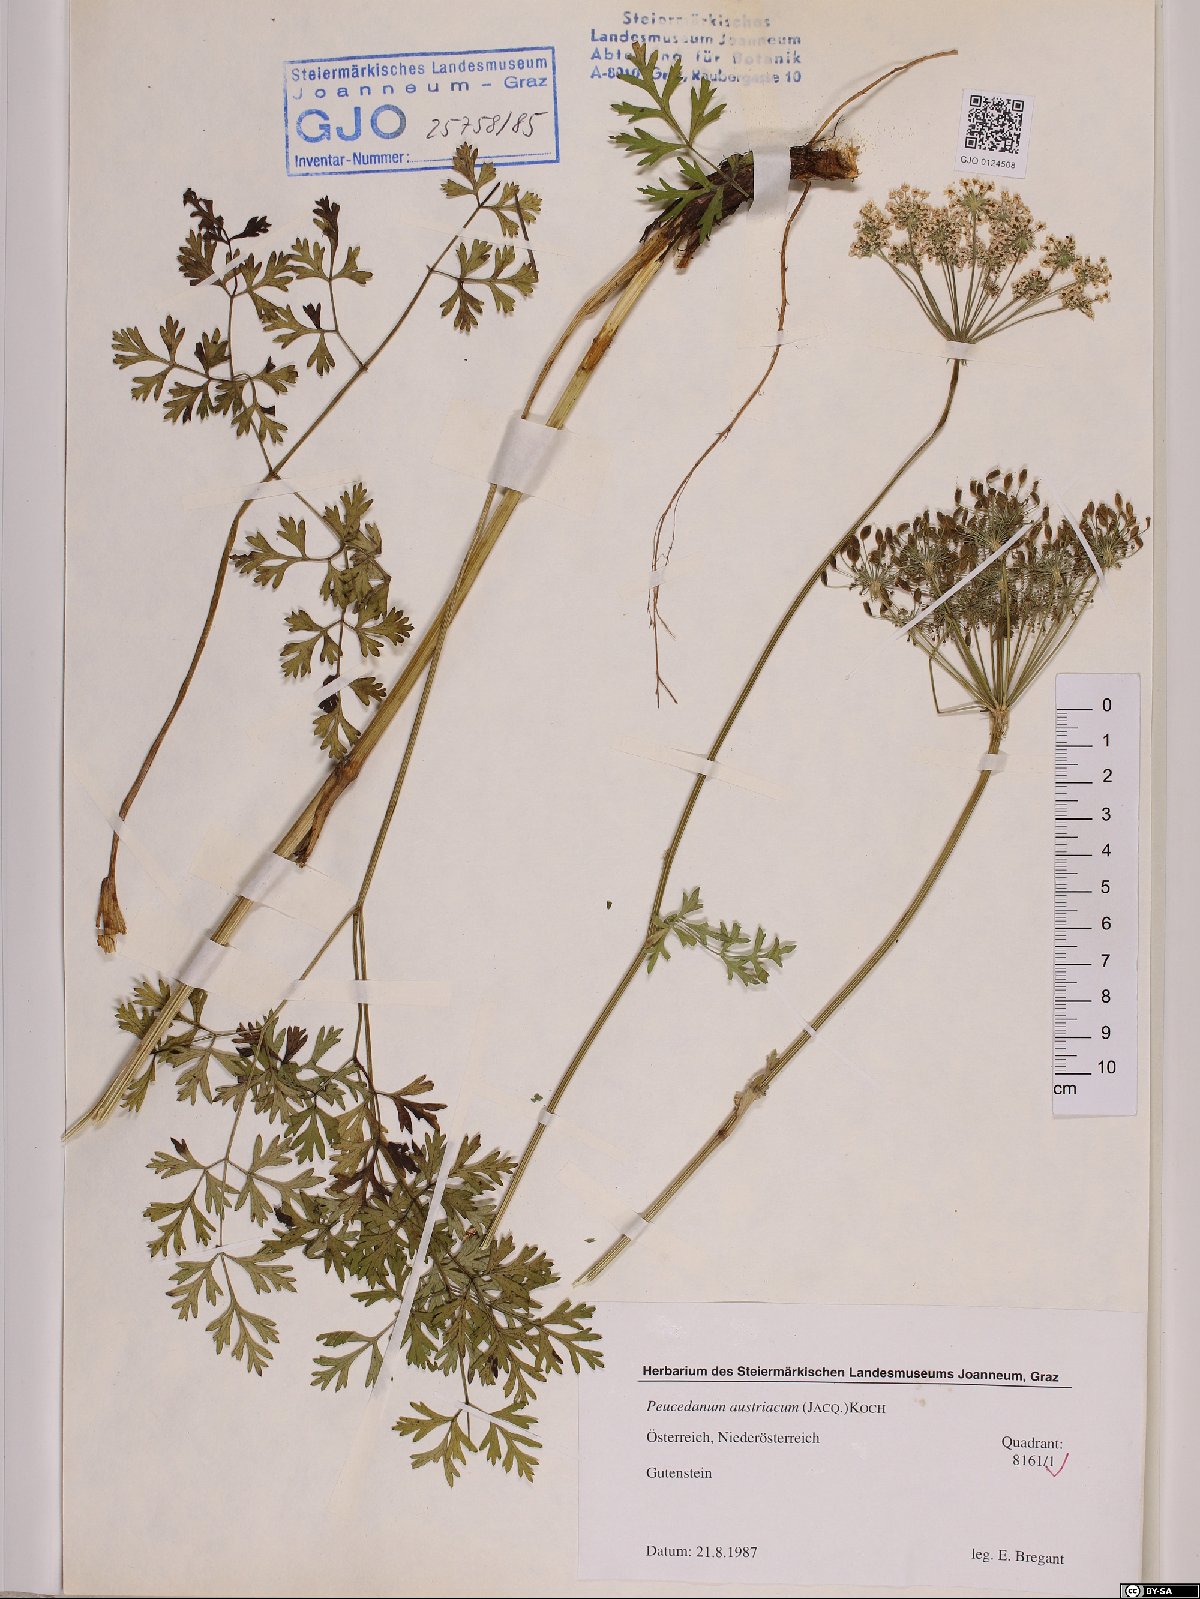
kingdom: Plantae
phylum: Tracheophyta
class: Magnoliopsida
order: Apiales
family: Apiaceae
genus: Peucedanum
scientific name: Peucedanum austriacum
